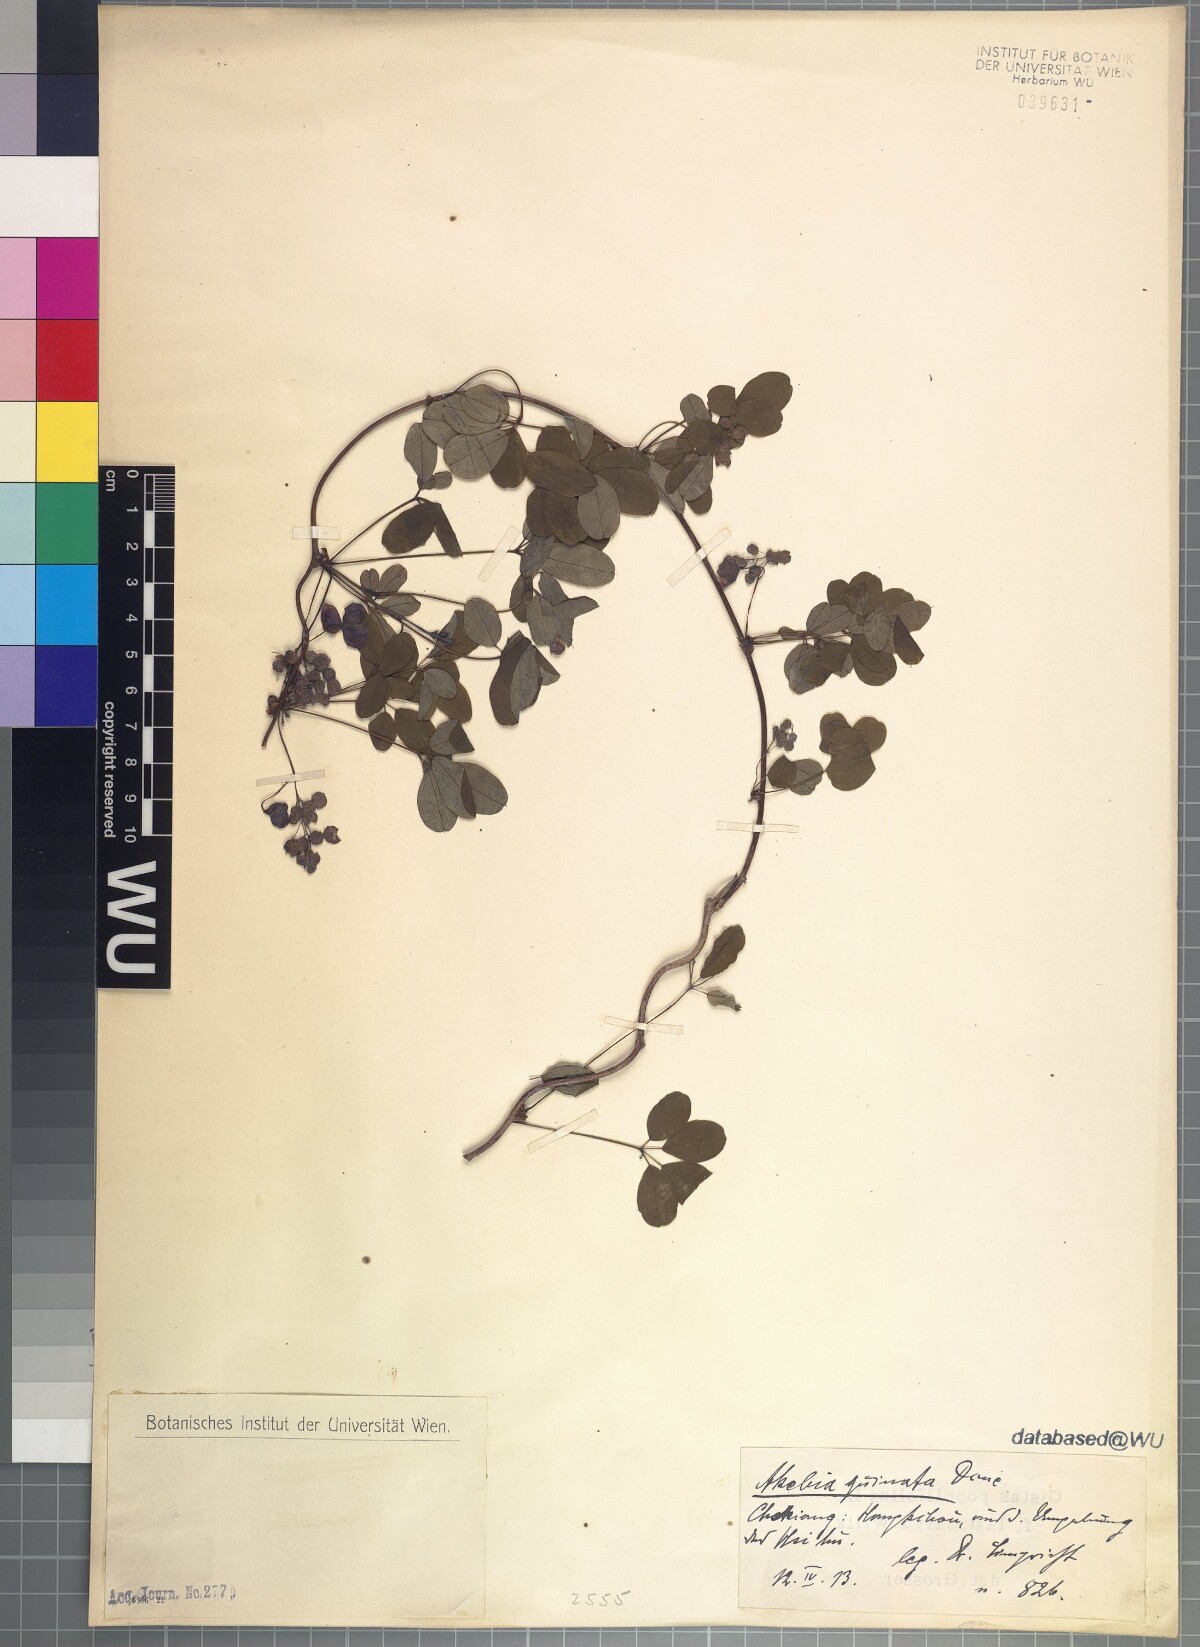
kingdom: Plantae
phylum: Tracheophyta
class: Magnoliopsida
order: Ranunculales
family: Lardizabalaceae
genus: Akebia
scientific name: Akebia quinata
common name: Five-leaf akebia
